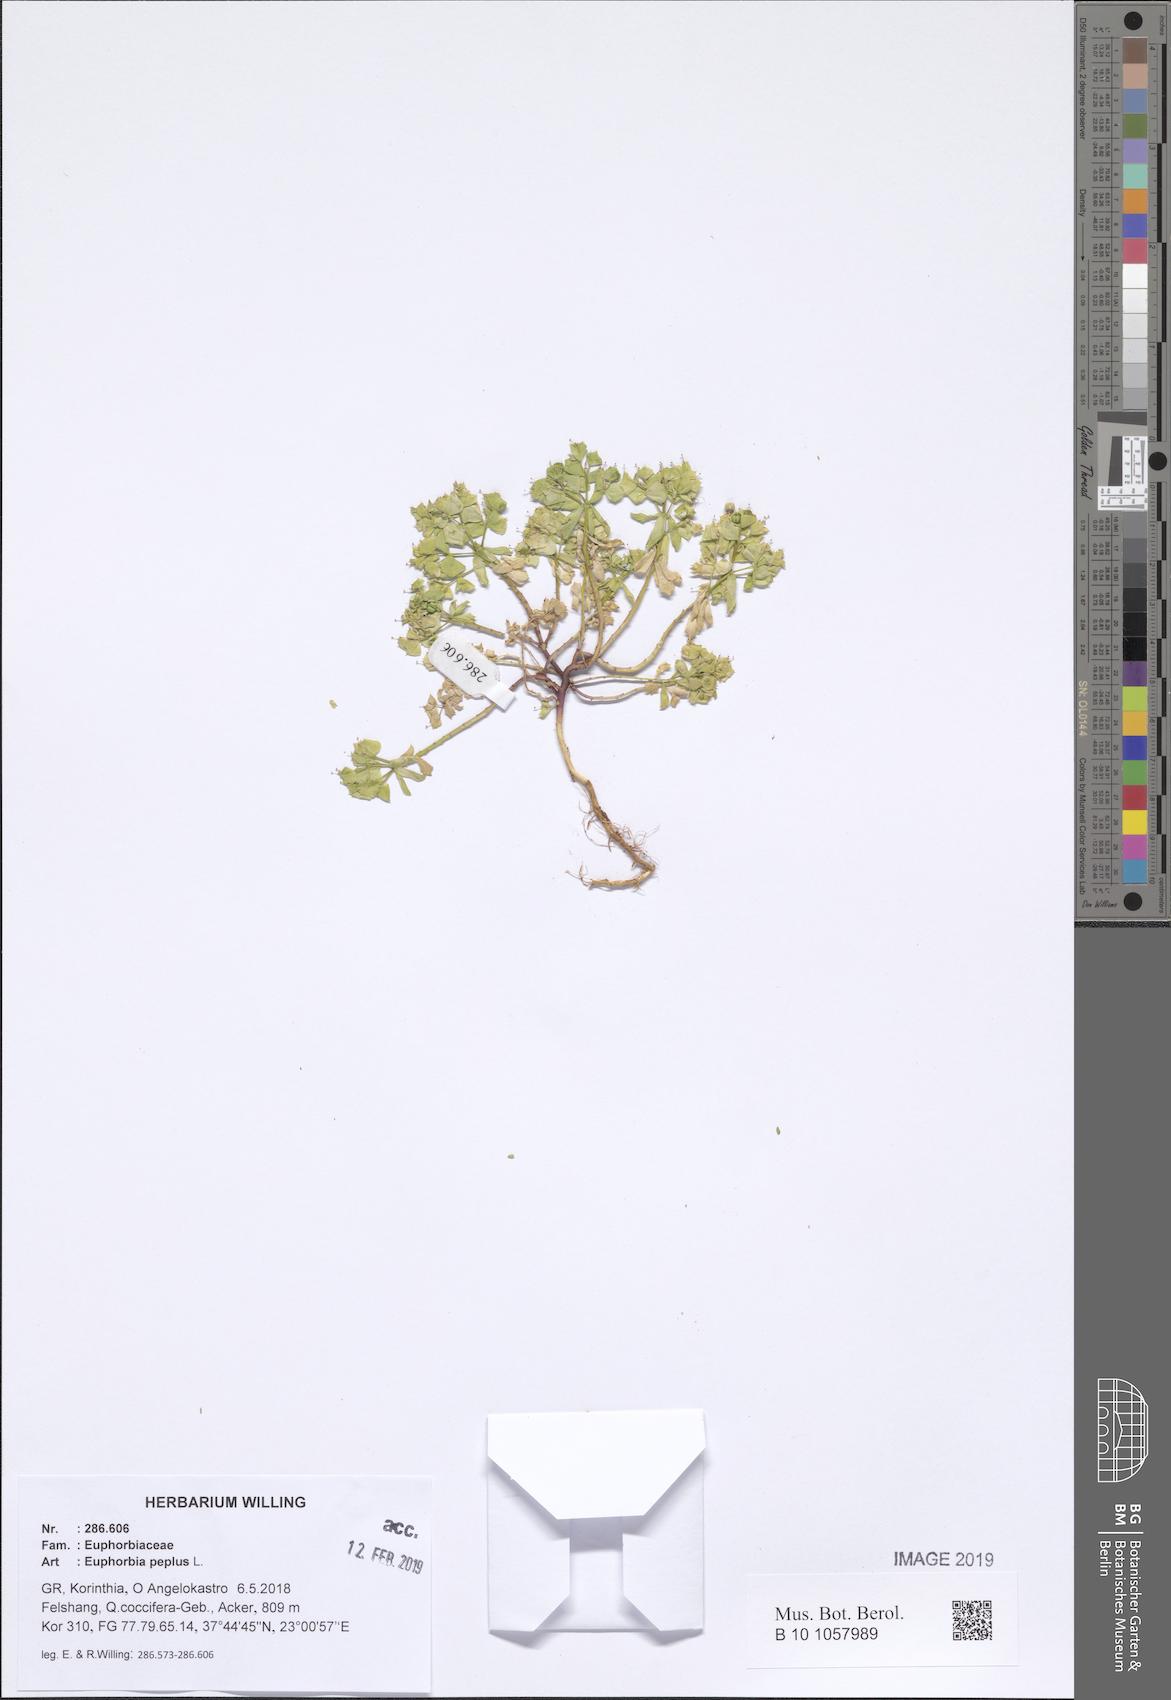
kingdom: Plantae
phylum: Tracheophyta
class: Magnoliopsida
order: Malpighiales
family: Euphorbiaceae
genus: Euphorbia
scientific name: Euphorbia peplus
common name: Petty spurge
